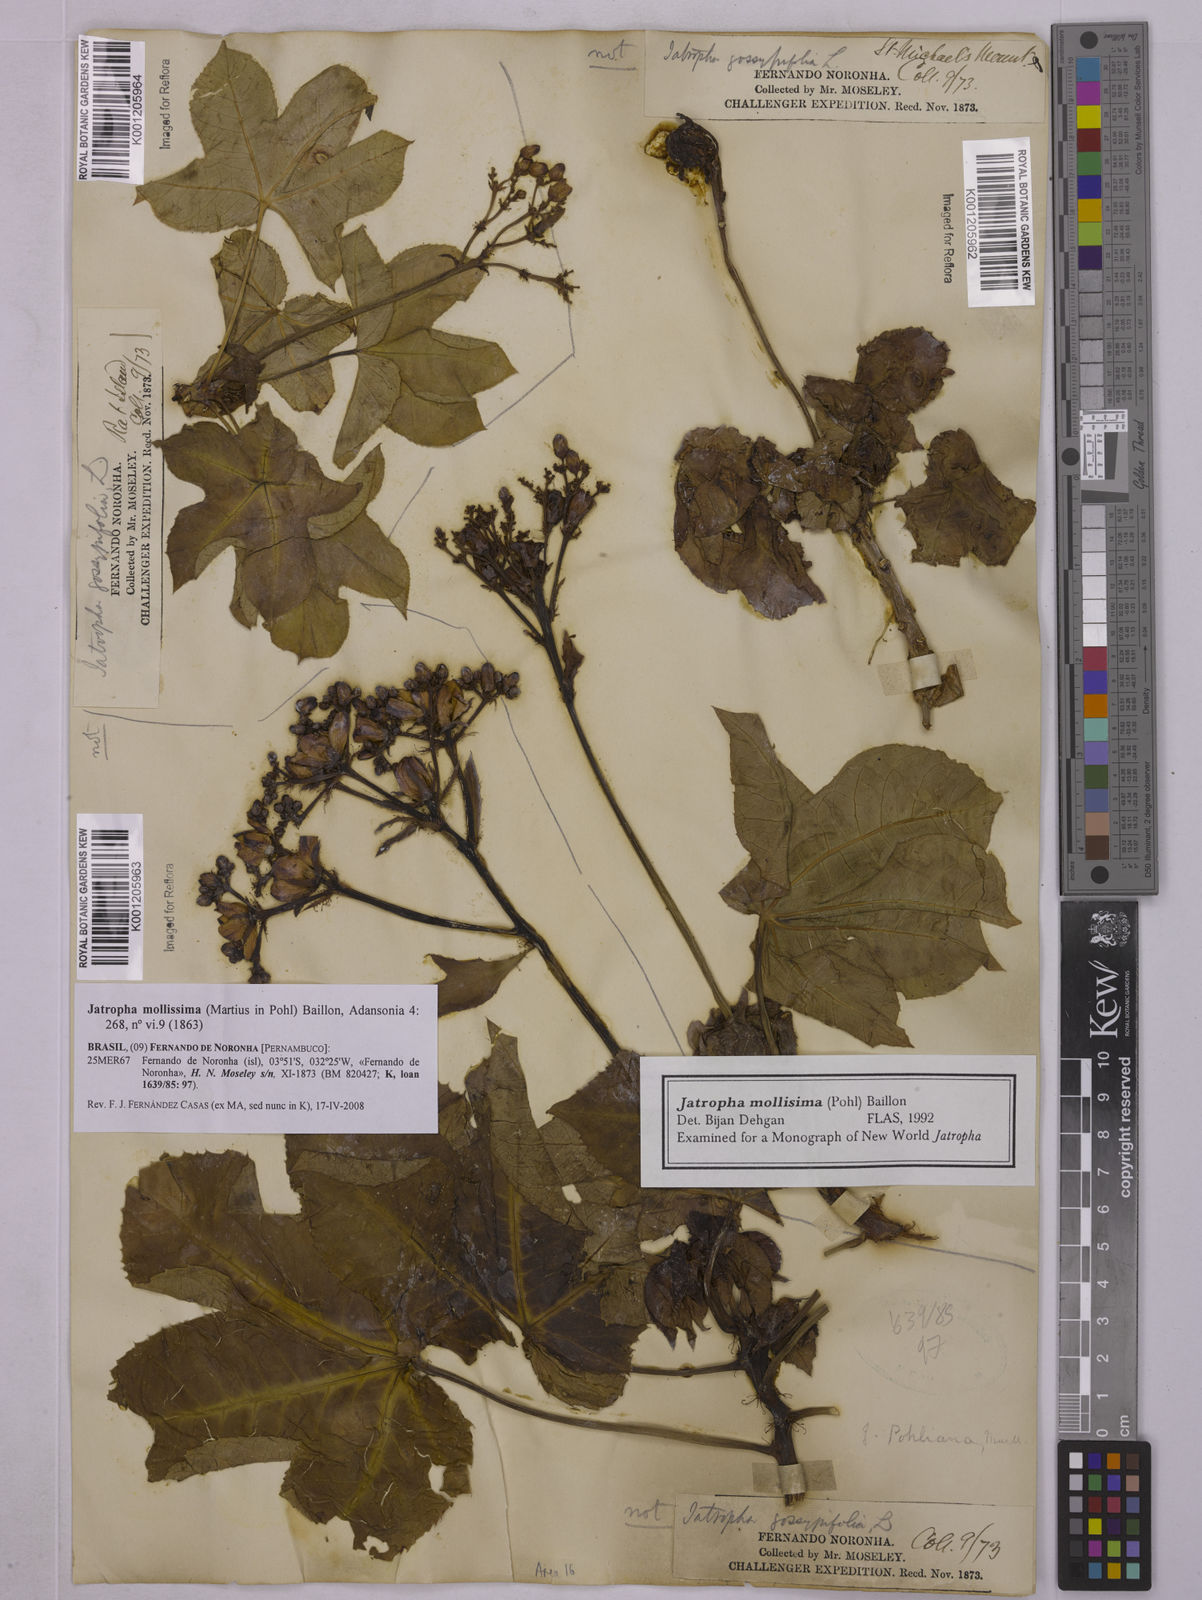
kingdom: Plantae
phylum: Tracheophyta
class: Magnoliopsida
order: Malpighiales
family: Euphorbiaceae
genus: Jatropha
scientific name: Jatropha mollissima
